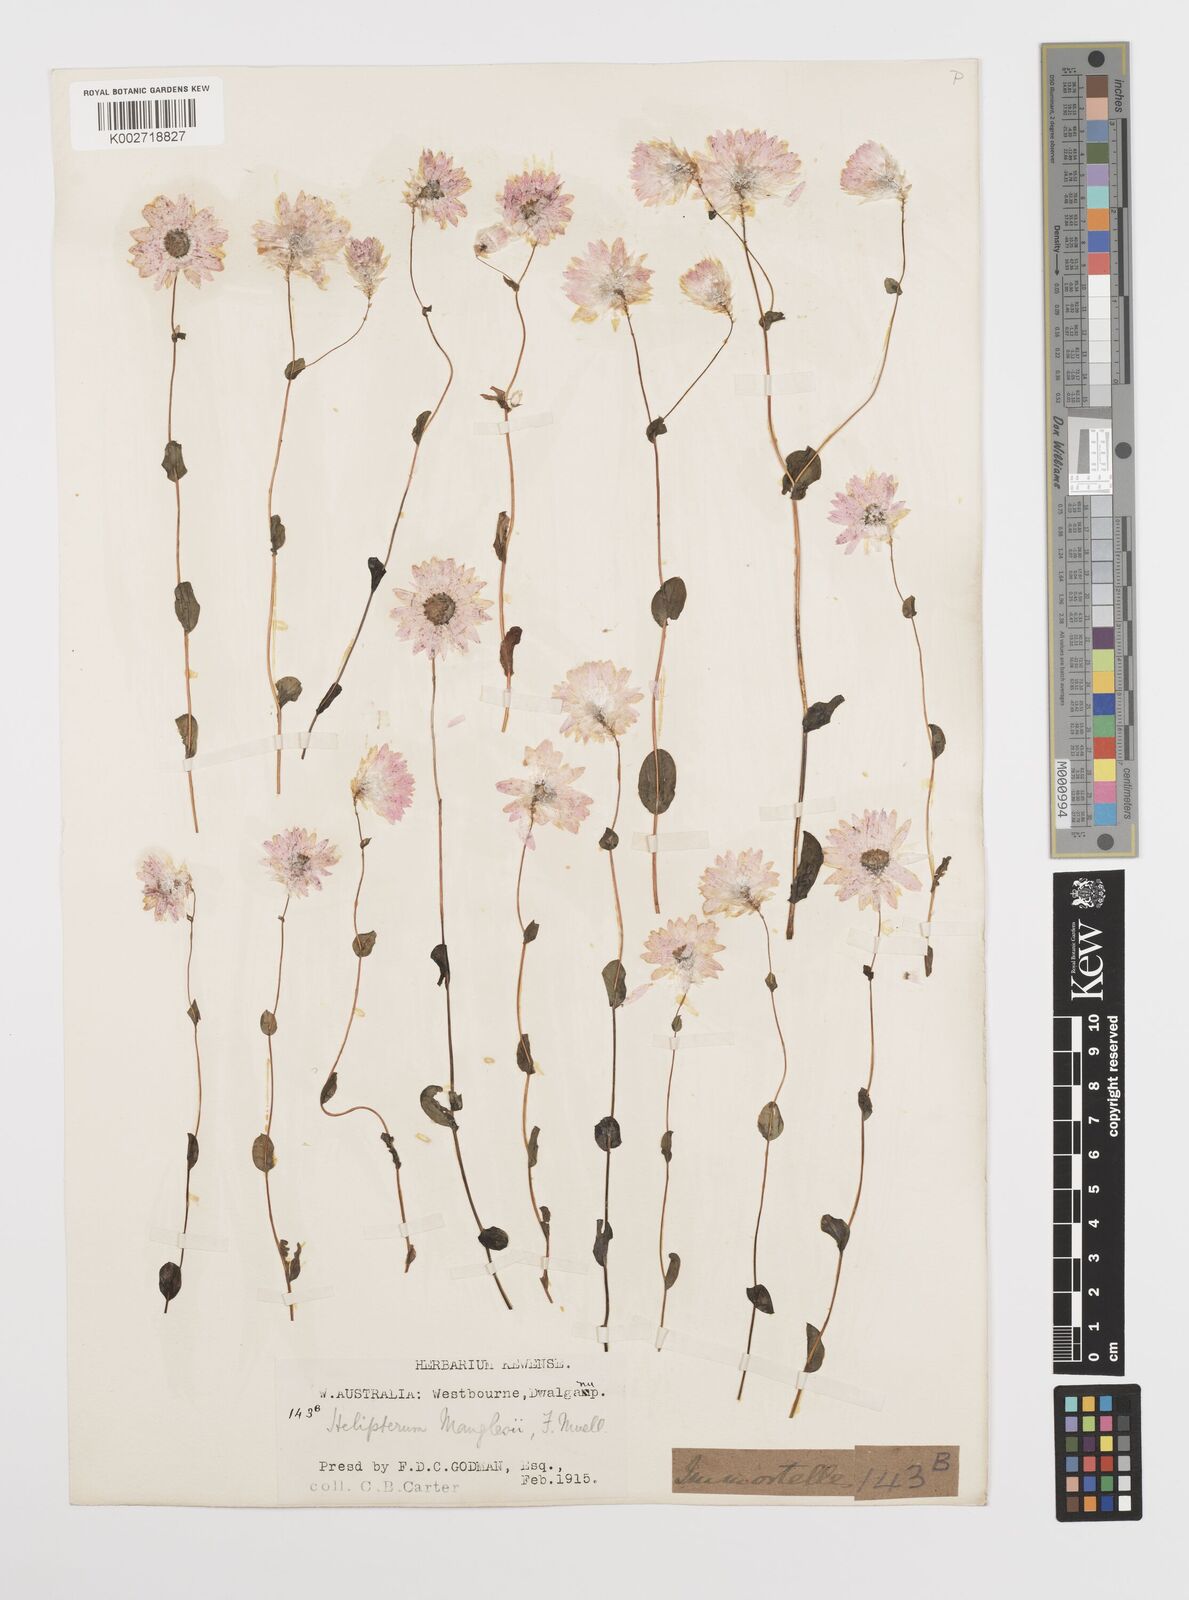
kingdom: Plantae
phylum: Tracheophyta
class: Magnoliopsida
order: Asterales
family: Asteraceae
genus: Rhodanthe
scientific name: Rhodanthe manglesii
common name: Pink sunray
